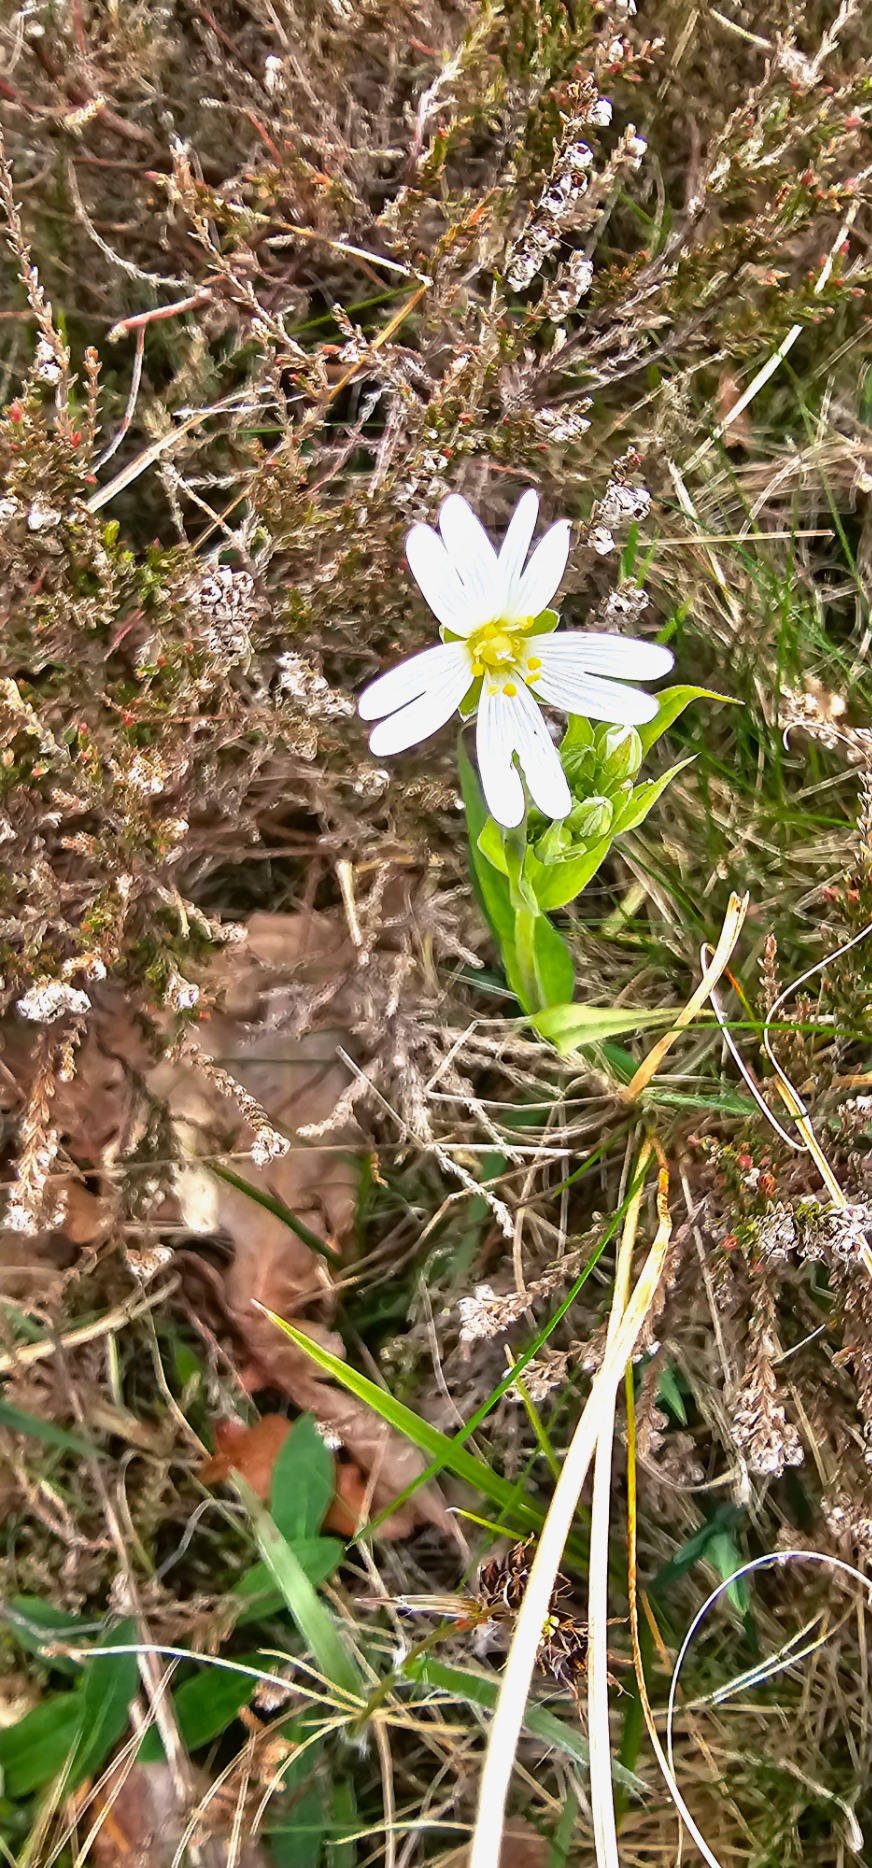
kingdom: Plantae
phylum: Tracheophyta
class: Magnoliopsida
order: Caryophyllales
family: Caryophyllaceae
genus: Rabelera
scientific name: Rabelera holostea
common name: Stor fladstjerne
